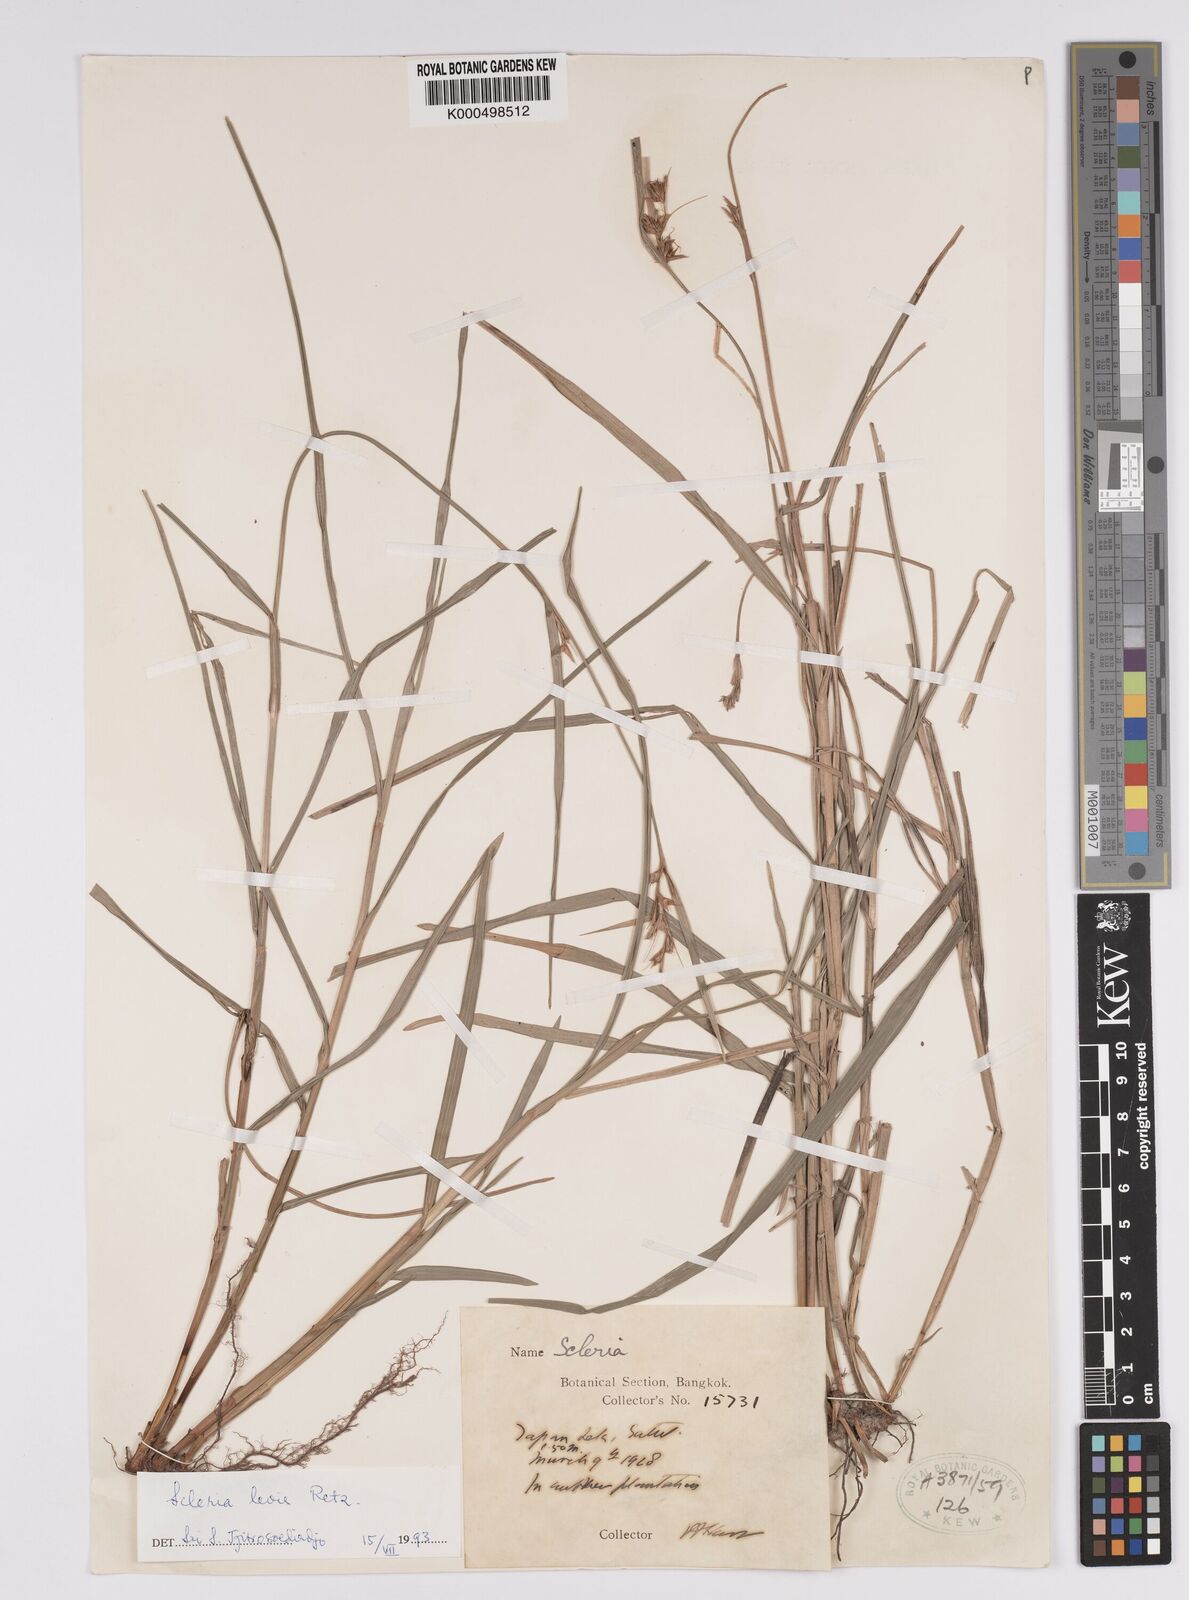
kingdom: Plantae
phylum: Tracheophyta
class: Liliopsida
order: Poales
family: Cyperaceae
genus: Scleria
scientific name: Scleria levis
